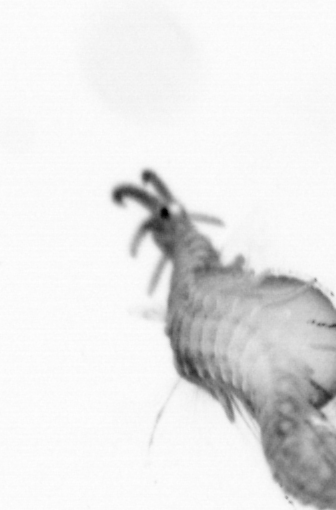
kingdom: Animalia
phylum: Annelida
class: Polychaeta
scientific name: Polychaeta
